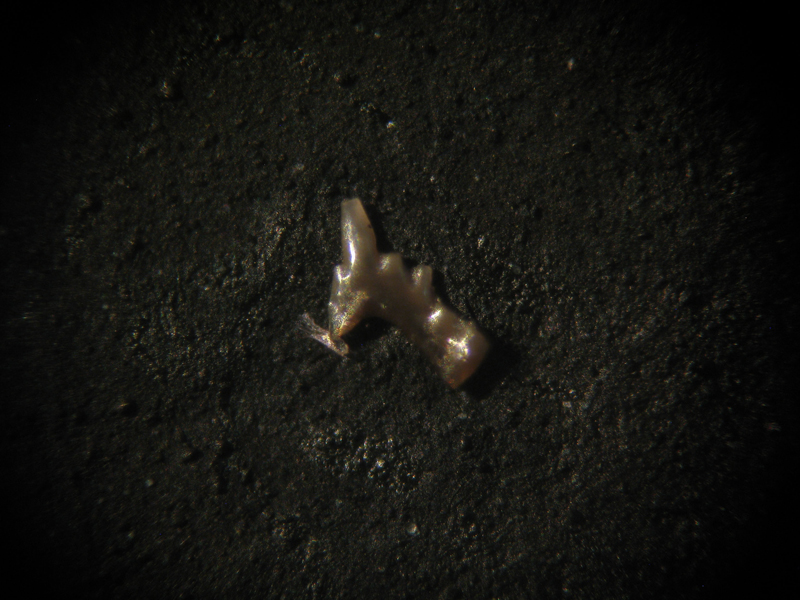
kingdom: Animalia
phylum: Chordata
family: Balognathidae
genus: Euprioniodina
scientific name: Euprioniodina
